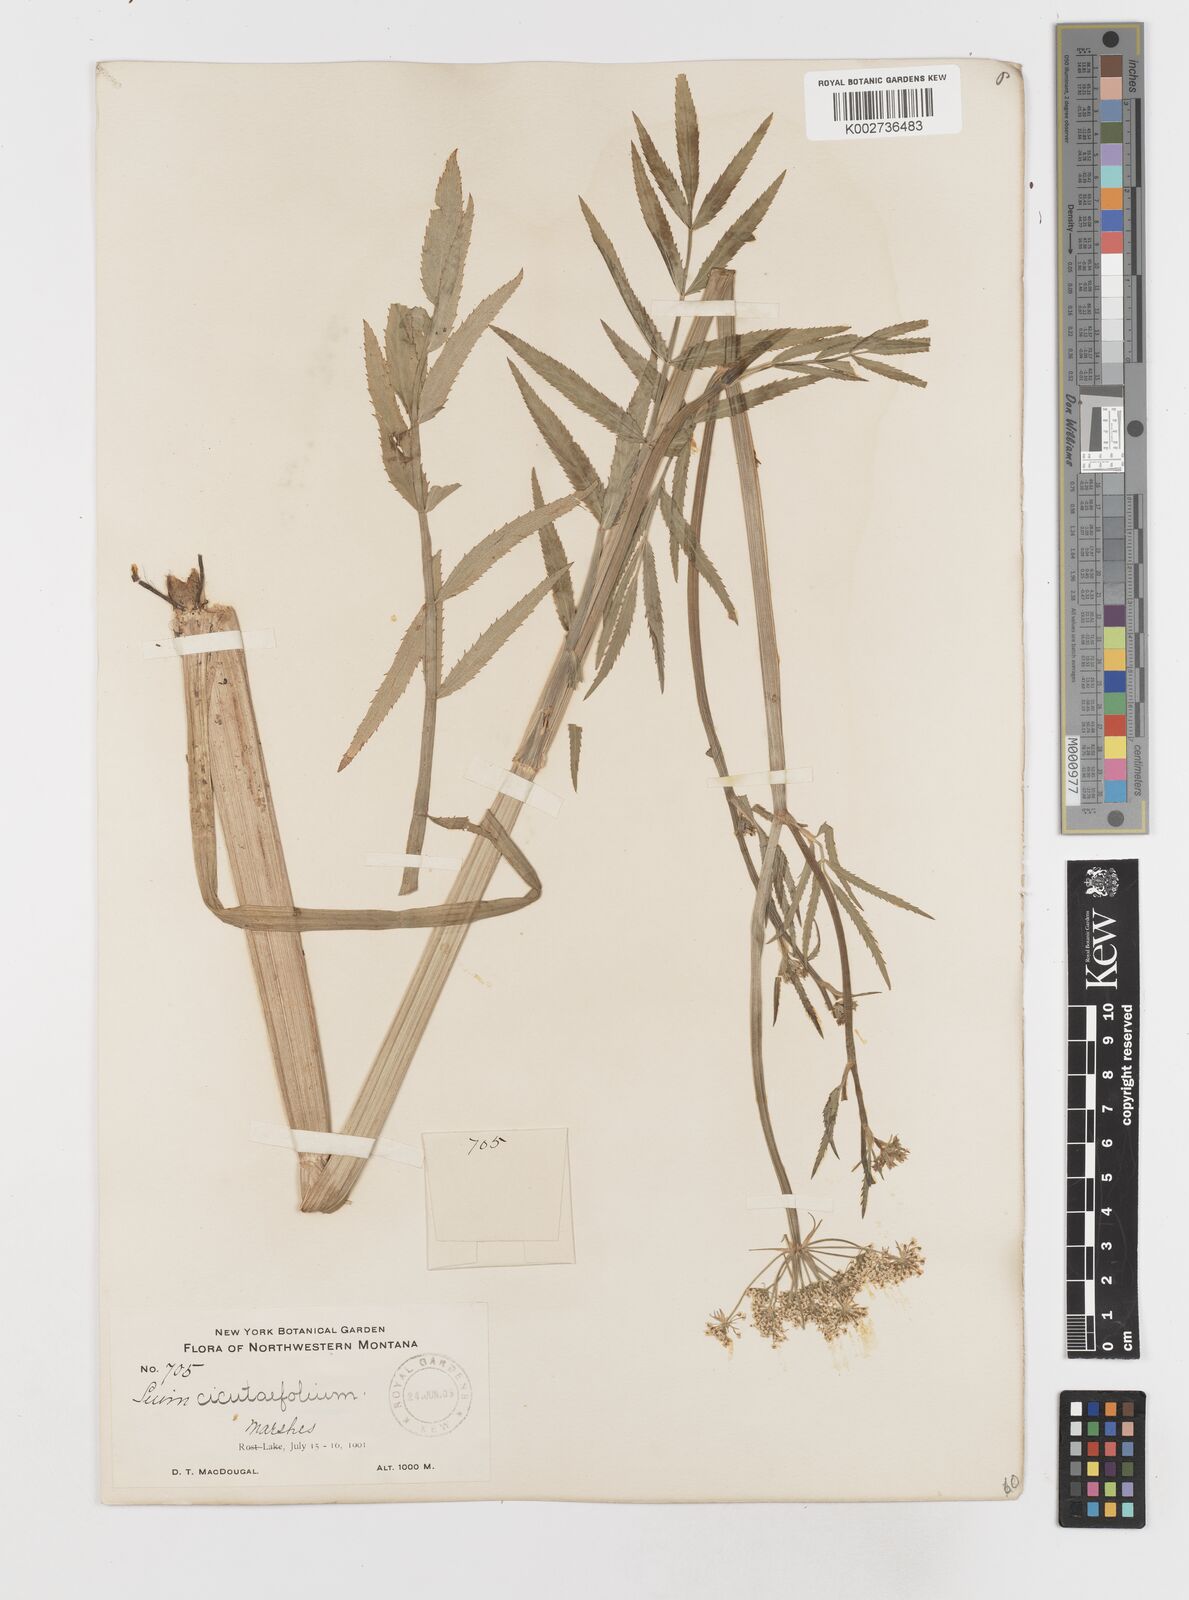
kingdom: Plantae
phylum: Tracheophyta
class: Magnoliopsida
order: Apiales
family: Apiaceae
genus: Sium
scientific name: Sium suave
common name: Hemlock water-parsnip
